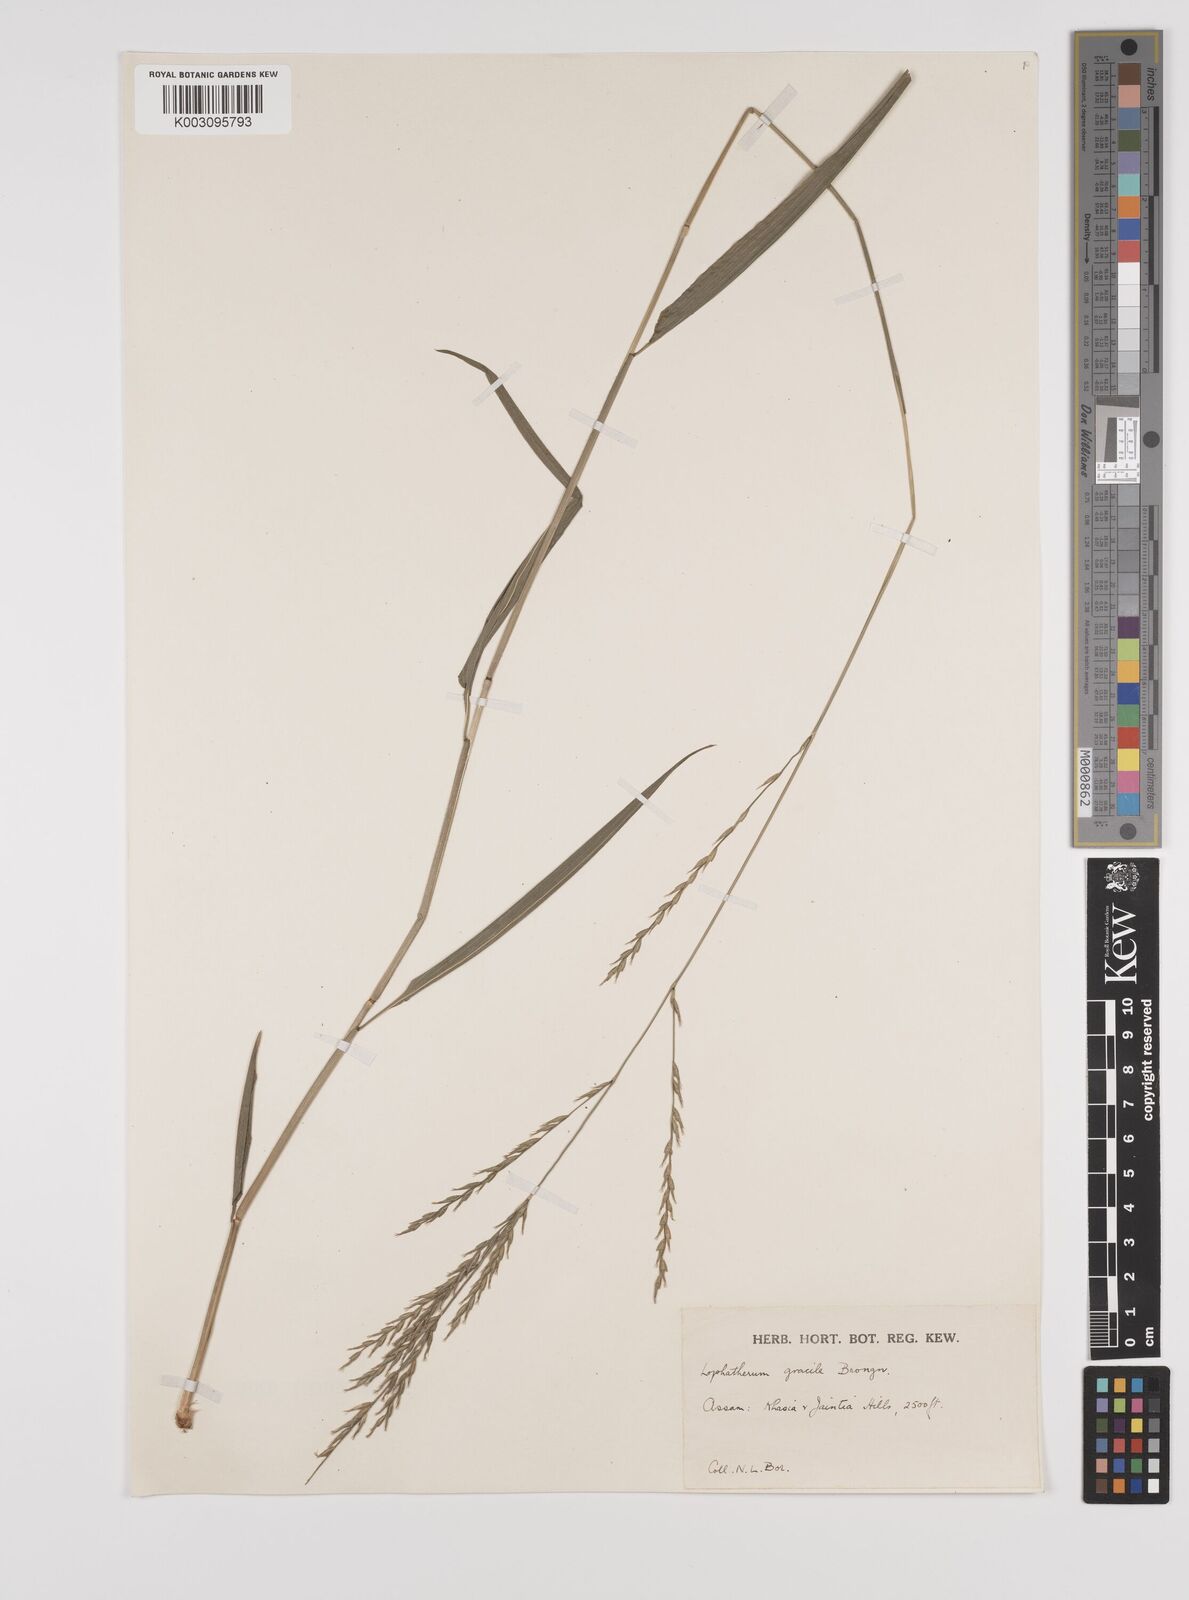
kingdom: Plantae
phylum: Tracheophyta
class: Liliopsida
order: Poales
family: Poaceae
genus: Lophatherum
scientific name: Lophatherum gracile
